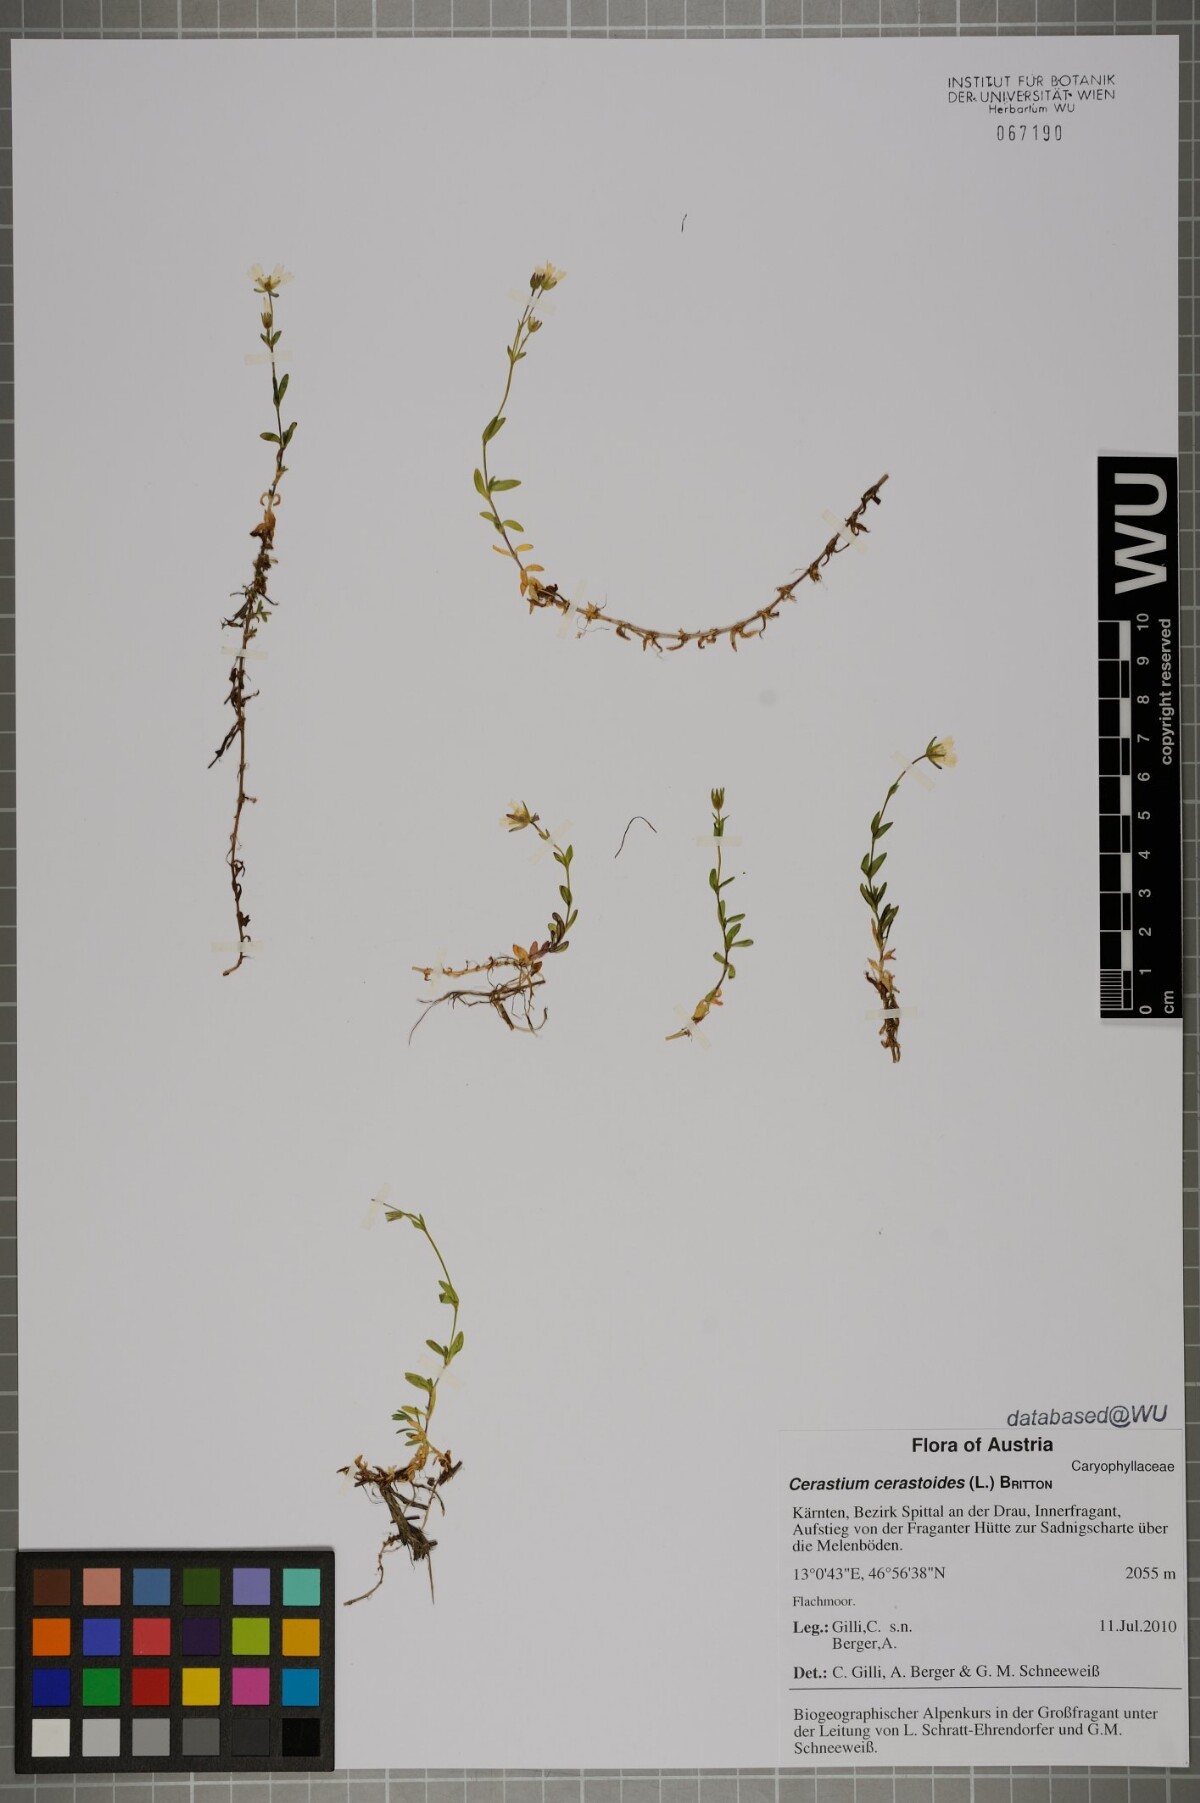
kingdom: Plantae
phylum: Tracheophyta
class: Magnoliopsida
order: Caryophyllales
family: Caryophyllaceae
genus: Dichodon
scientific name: Dichodon cerastoides
